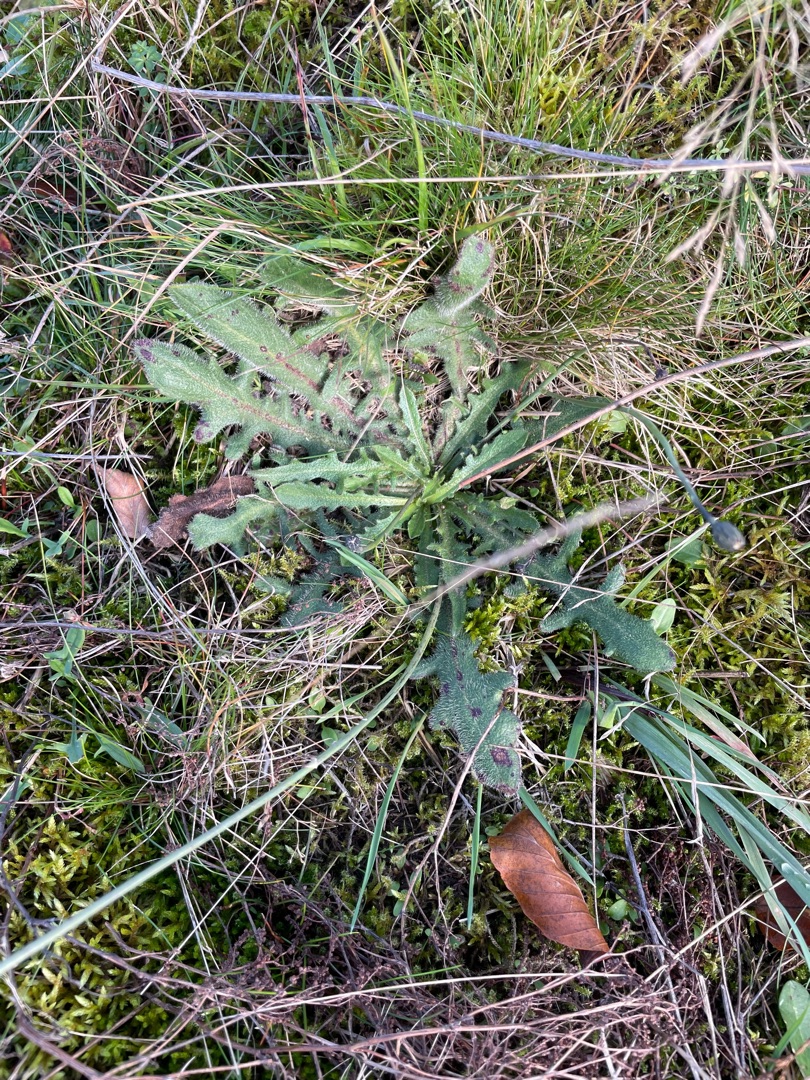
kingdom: Plantae
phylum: Tracheophyta
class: Magnoliopsida
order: Asterales
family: Asteraceae
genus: Hypochaeris
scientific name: Hypochaeris radicata
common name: Almindelig kongepen
